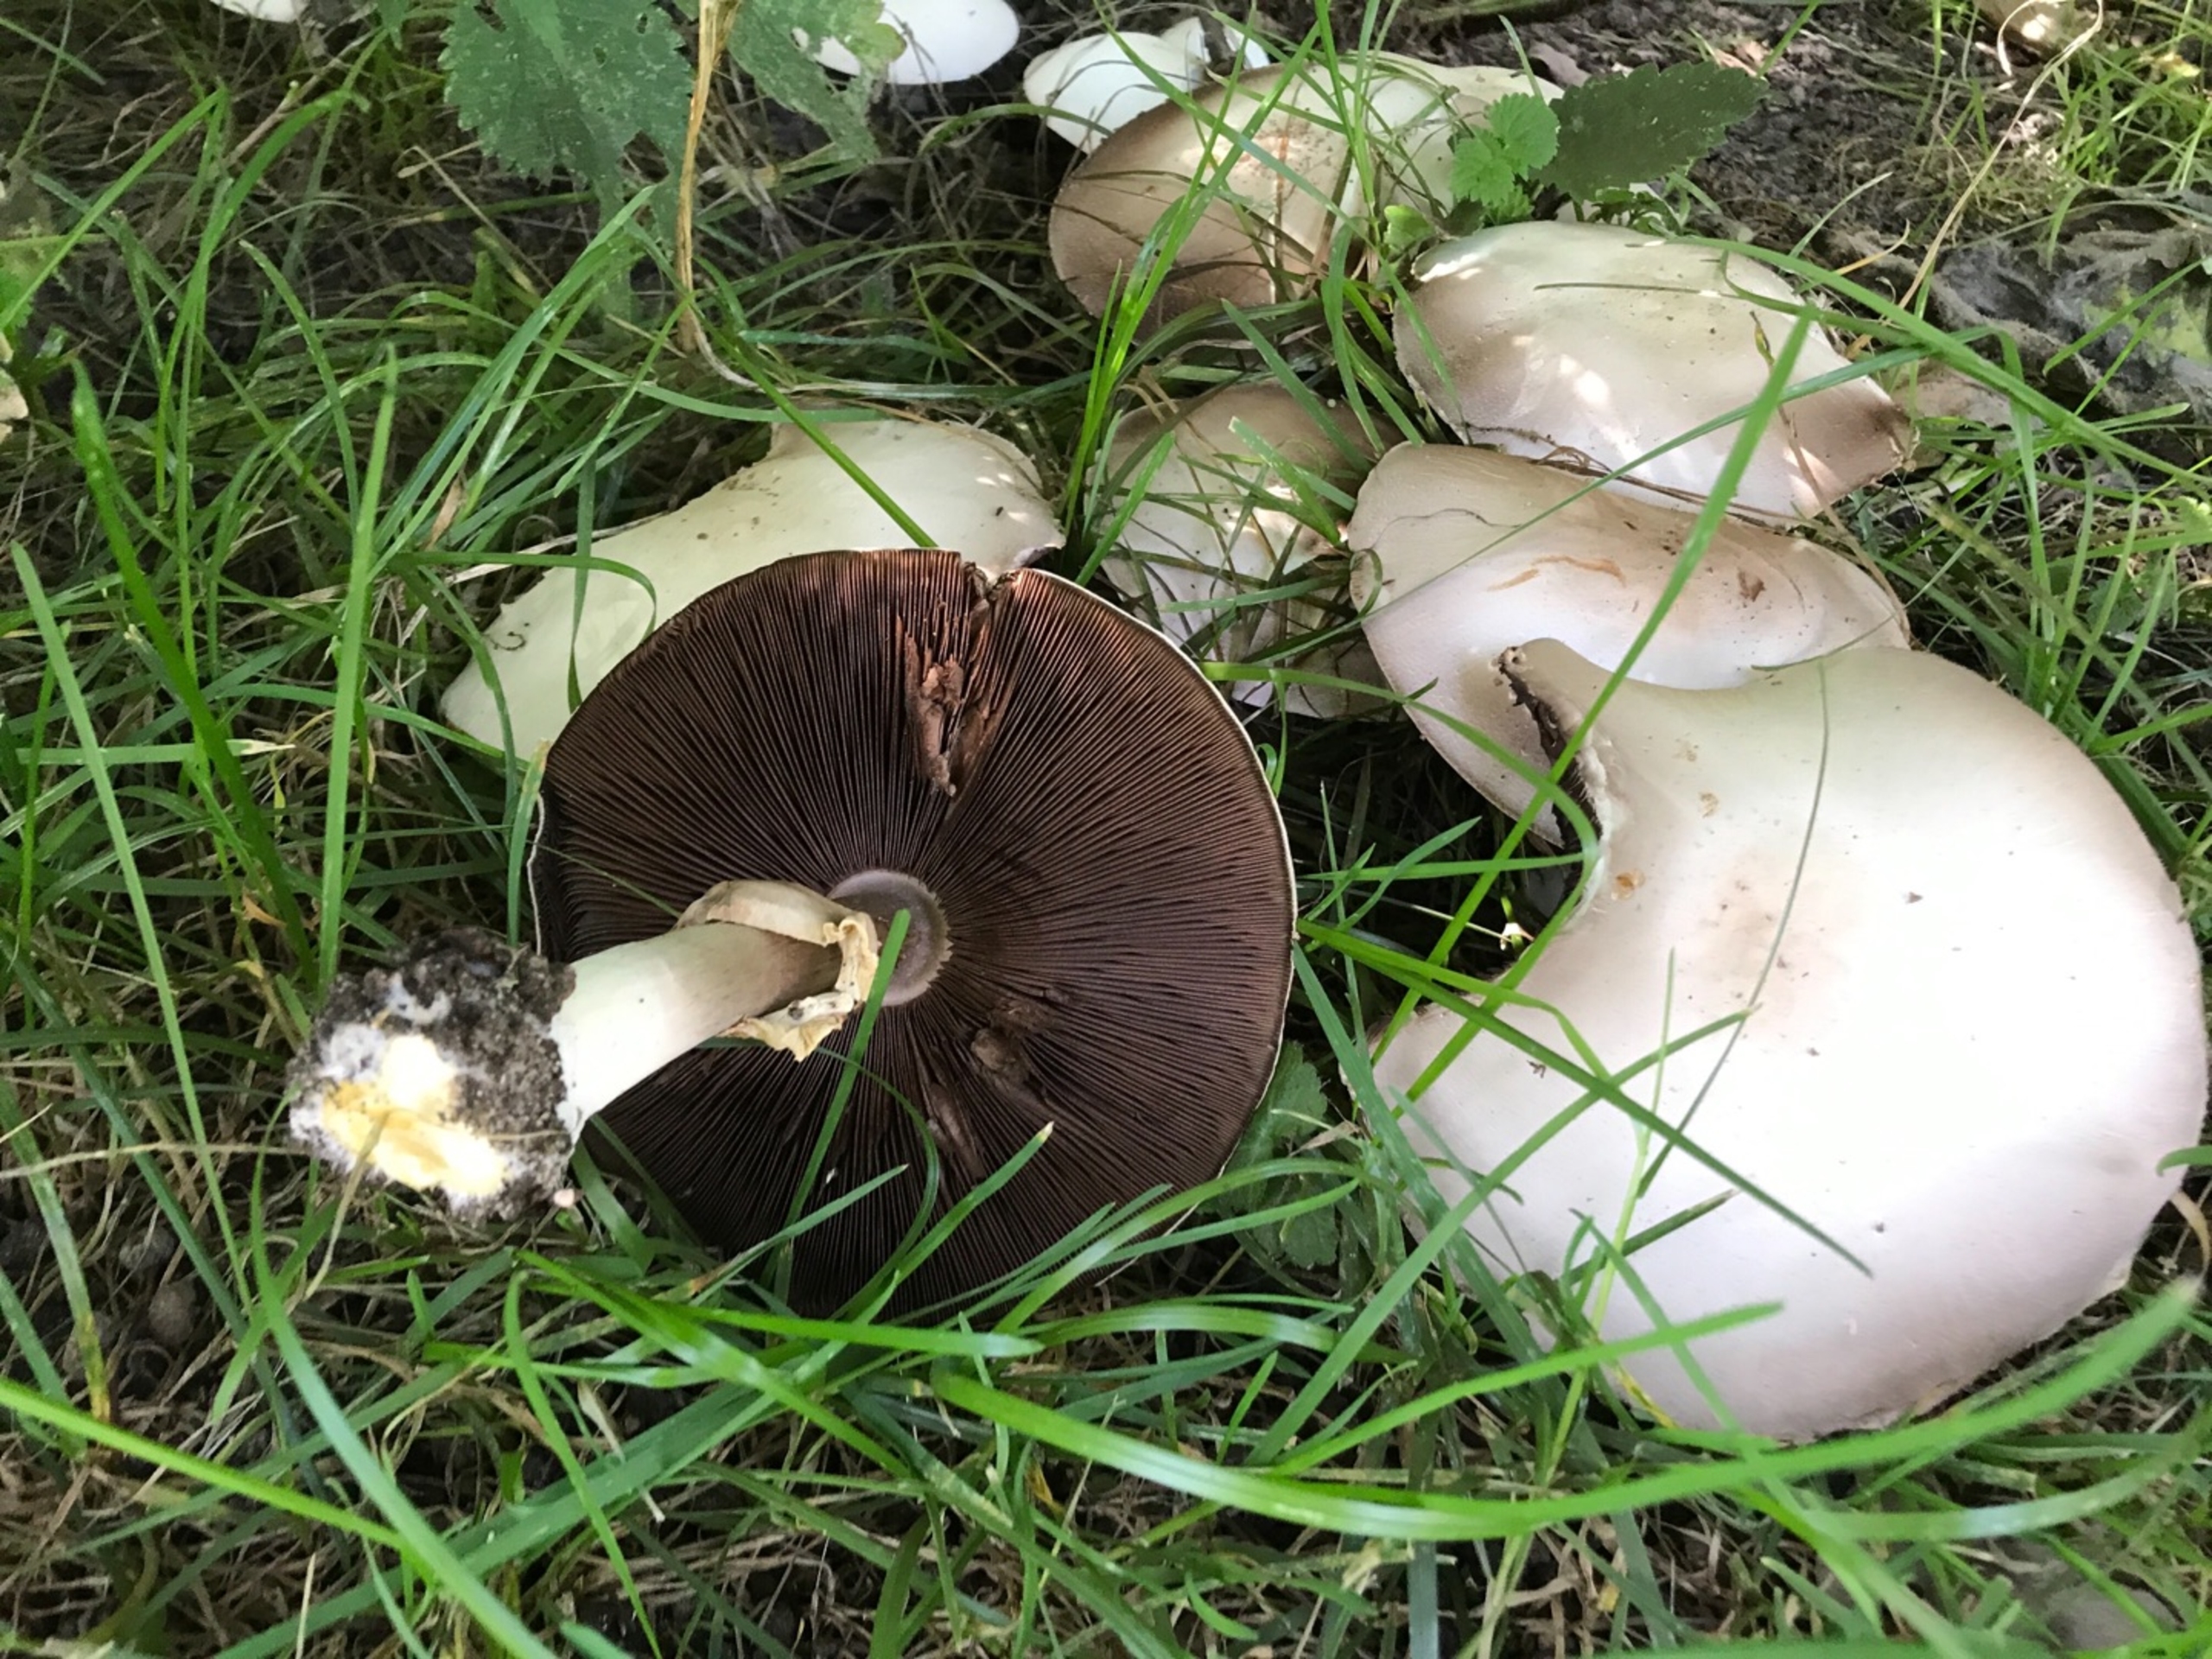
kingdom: Fungi
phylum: Basidiomycota
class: Agaricomycetes
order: Agaricales
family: Agaricaceae
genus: Agaricus
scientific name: Agaricus xanthodermus
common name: Karbol-champignon
